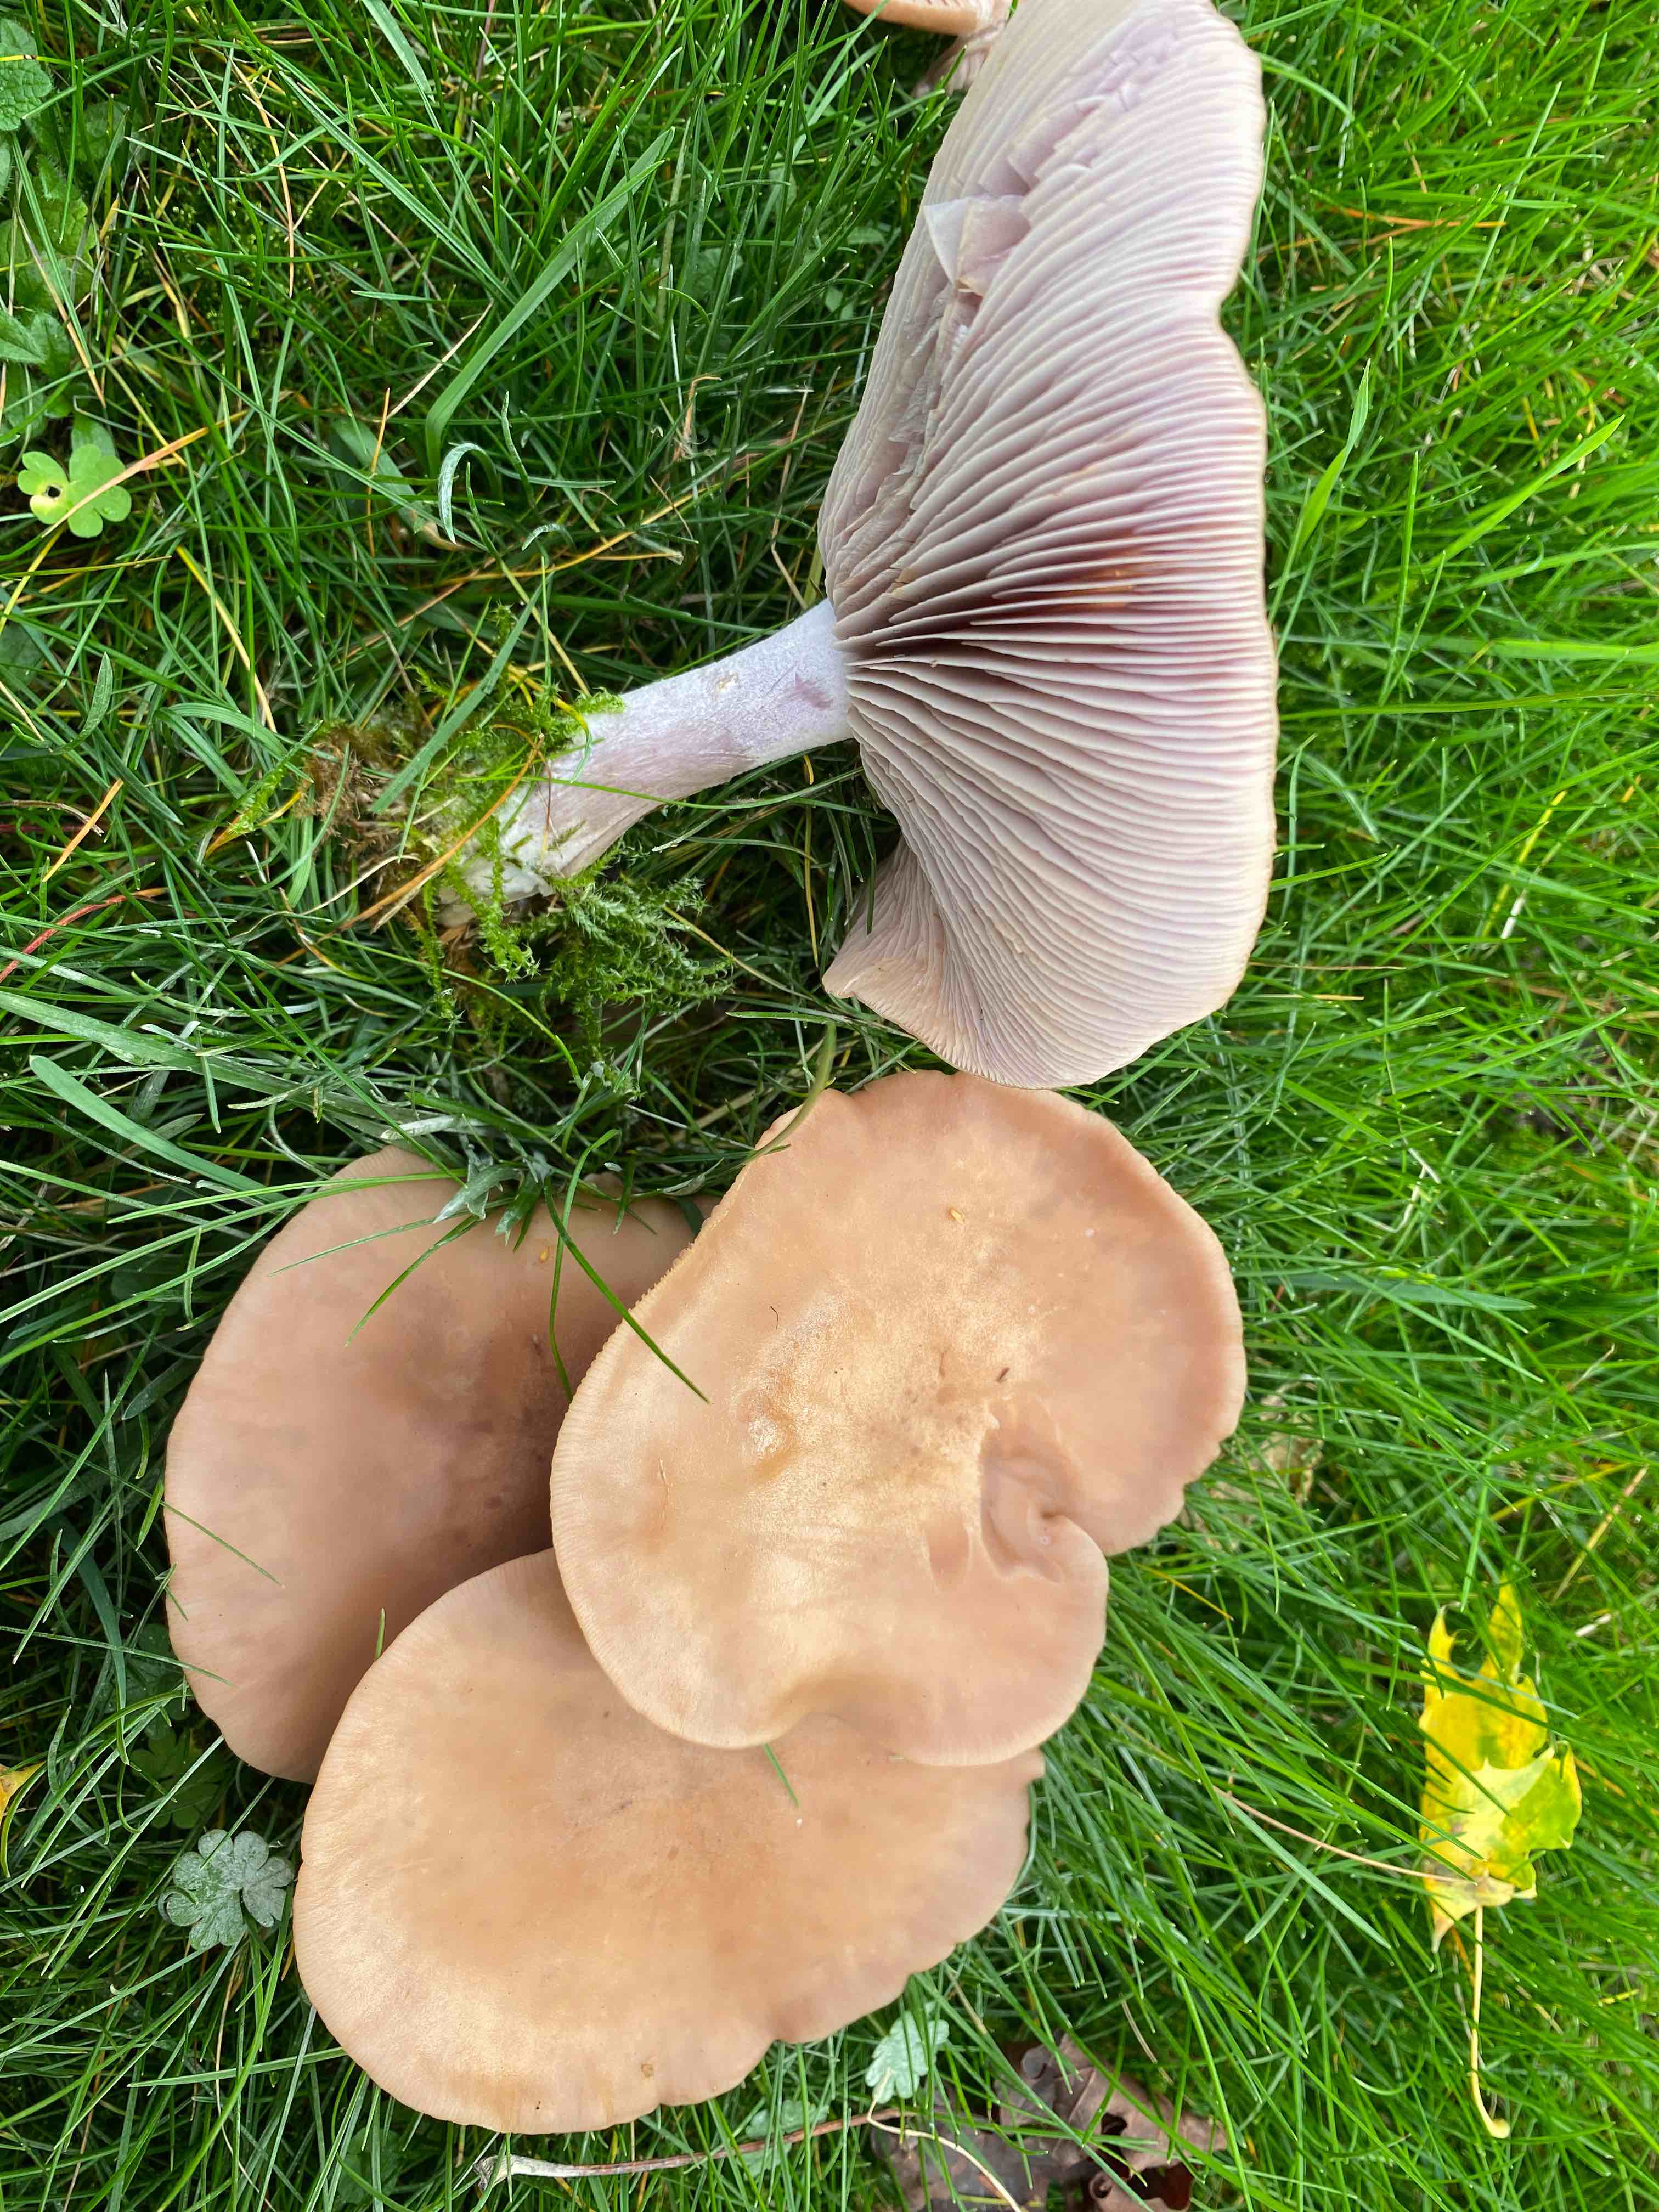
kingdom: Fungi
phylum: Basidiomycota
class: Agaricomycetes
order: Agaricales
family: Tricholomataceae
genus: Lepista
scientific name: Lepista nuda
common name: violet hekseringshat
